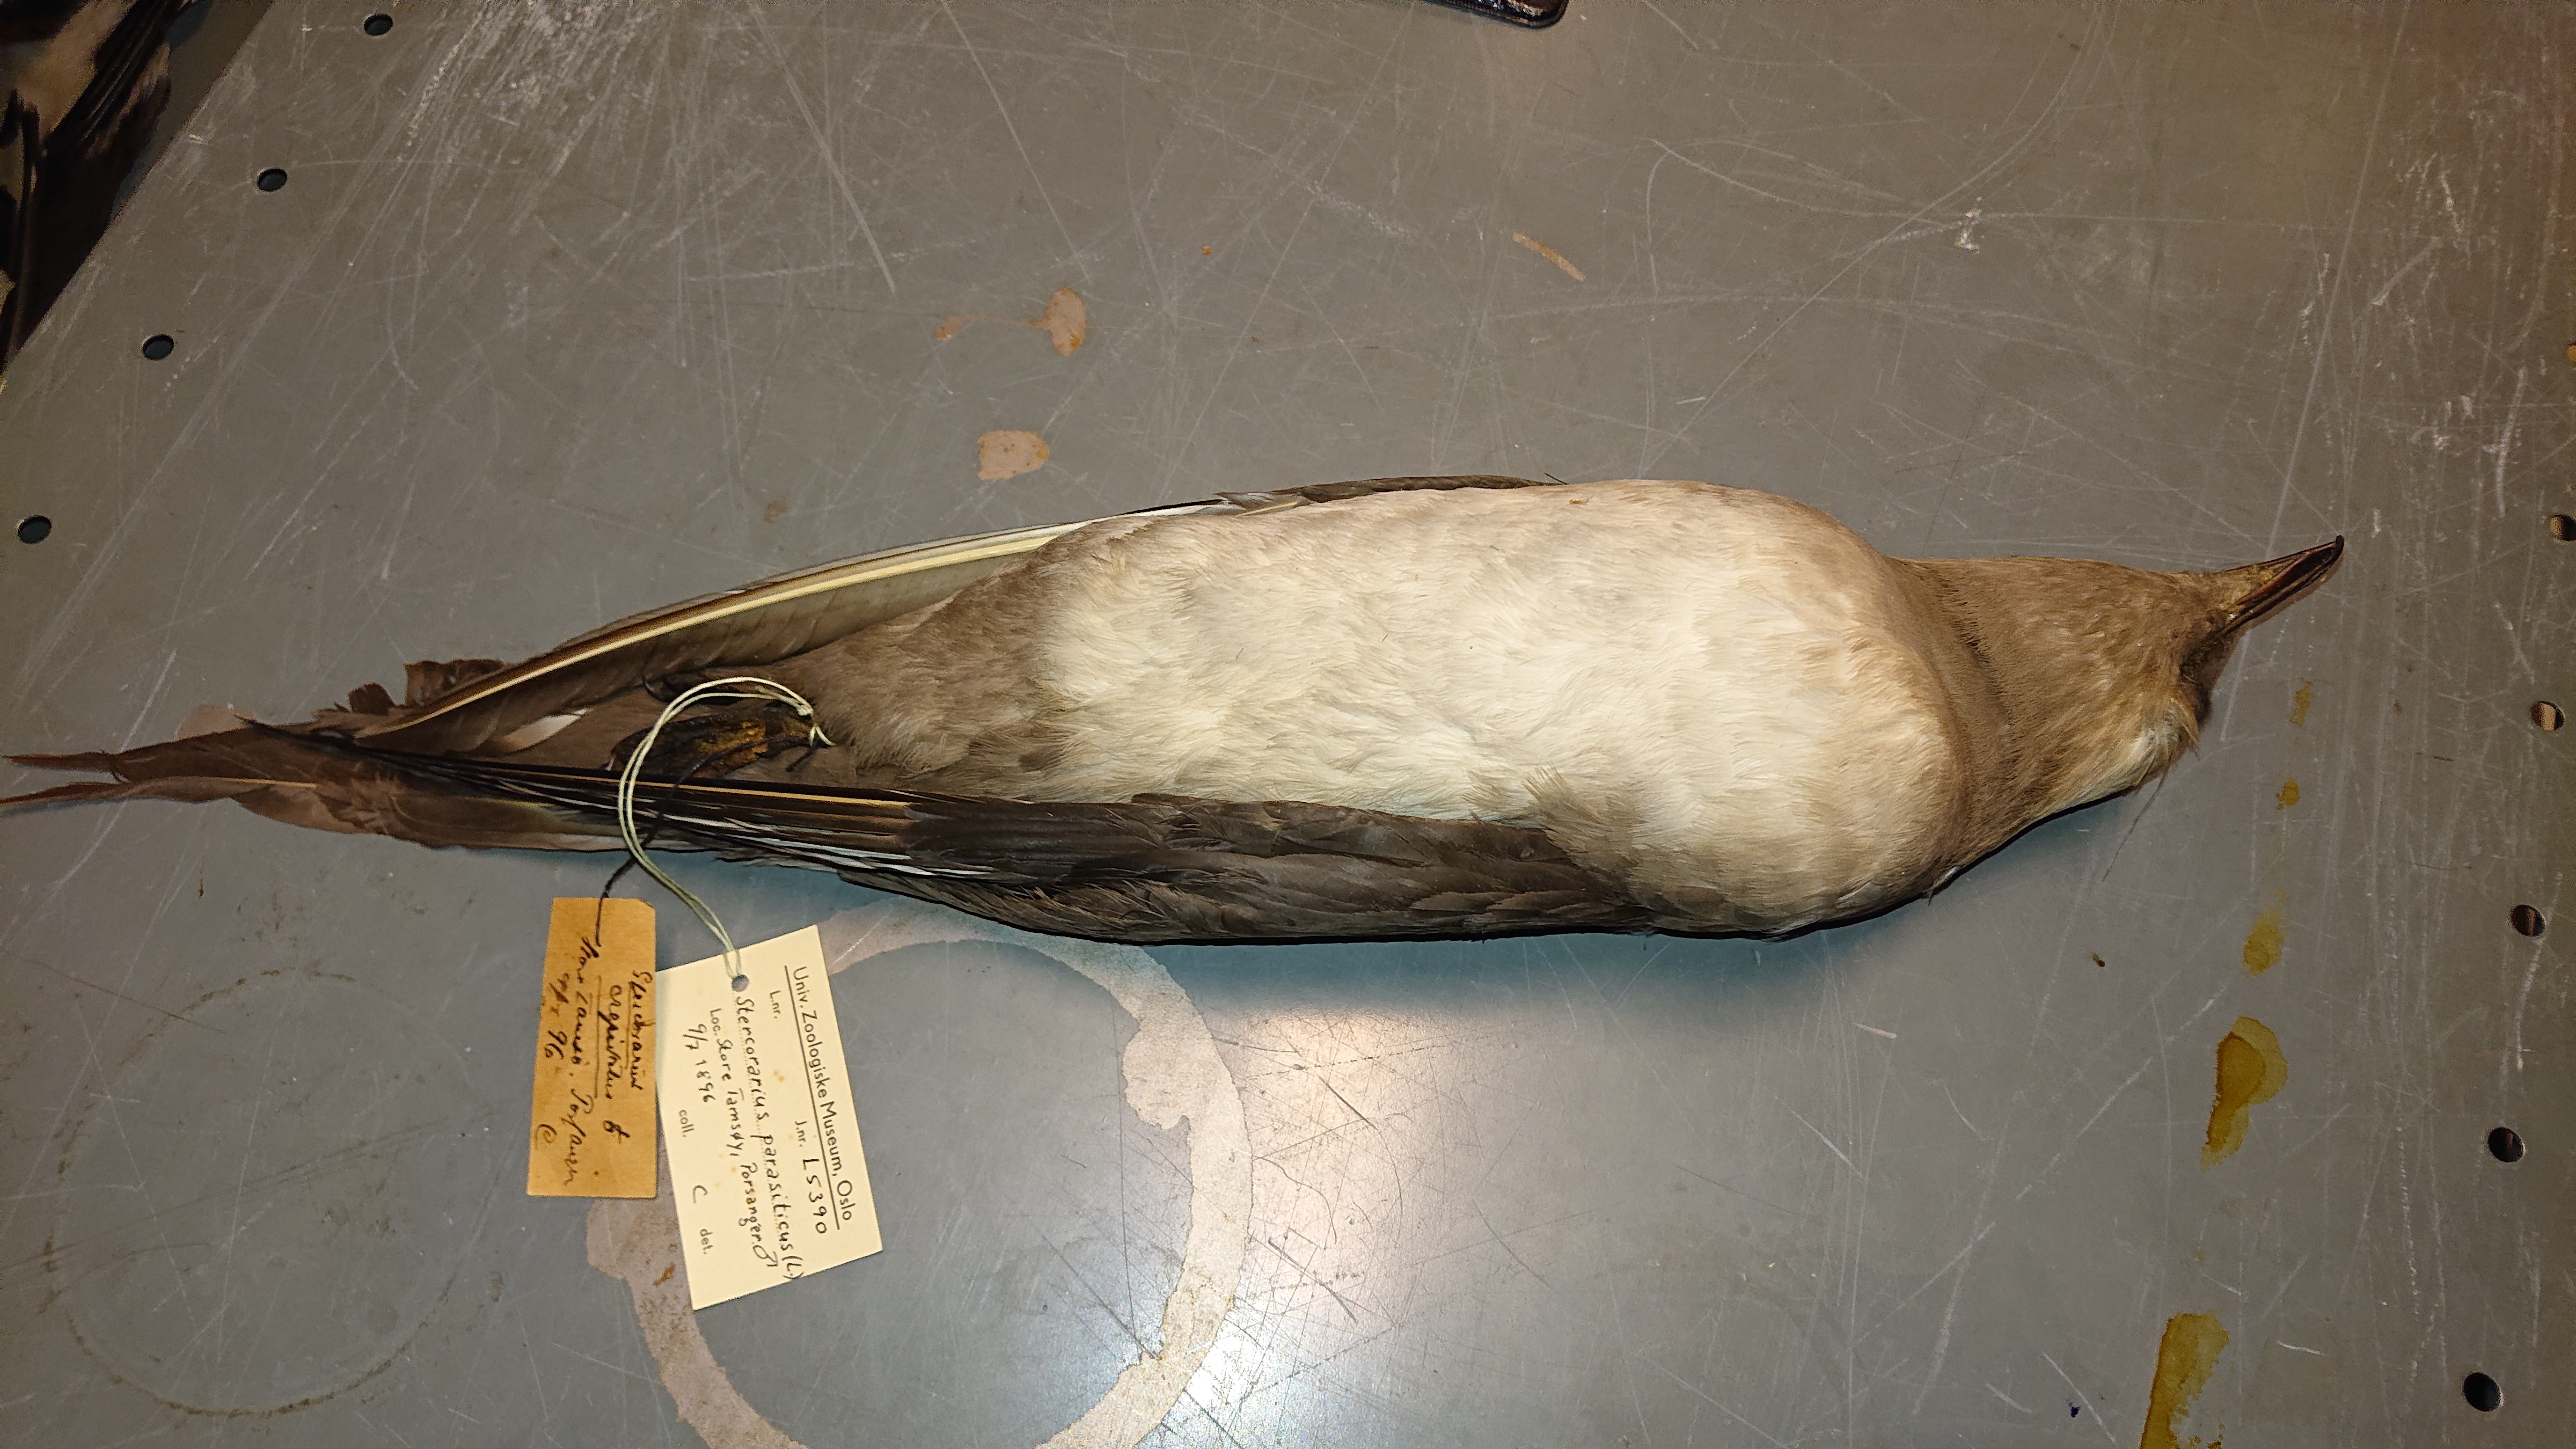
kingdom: Animalia
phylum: Chordata
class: Aves
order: Charadriiformes
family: Stercorariidae
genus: Stercorarius
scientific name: Stercorarius parasiticus
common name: Parasitic jaeger
